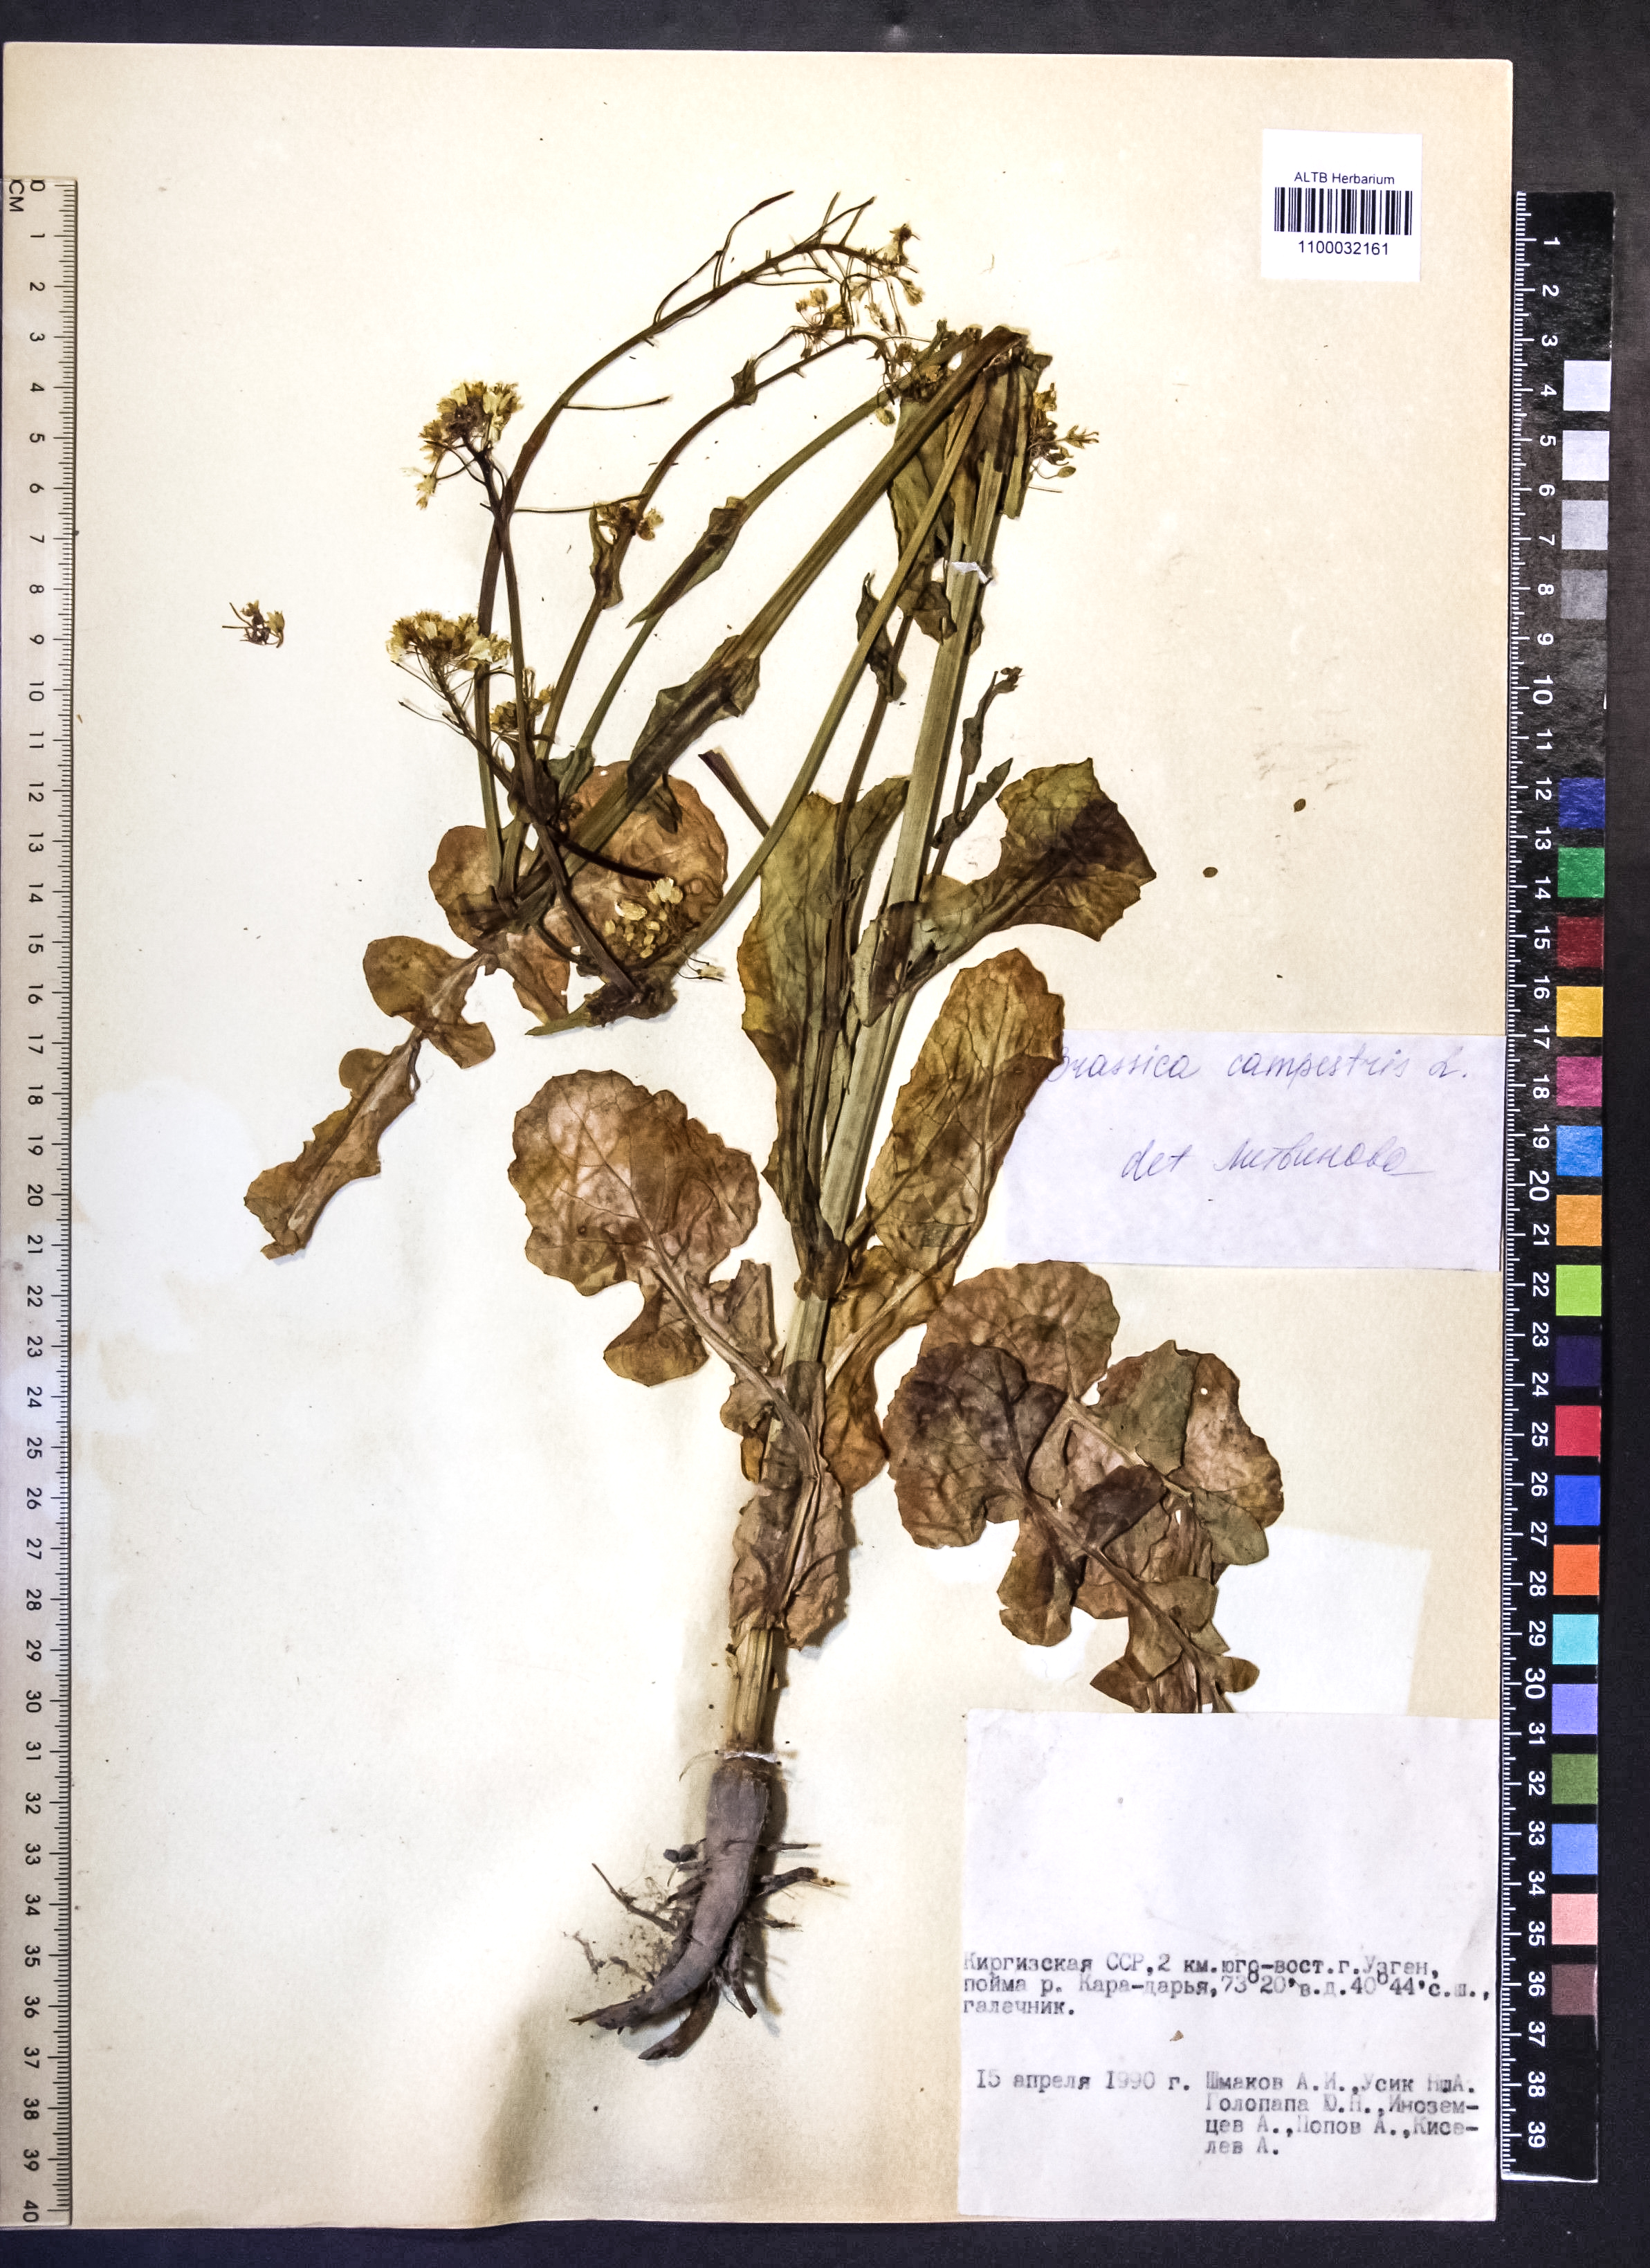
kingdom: Plantae
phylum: Tracheophyta
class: Magnoliopsida
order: Brassicales
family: Brassicaceae
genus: Brassica
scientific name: Brassica rapa
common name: Field mustard
